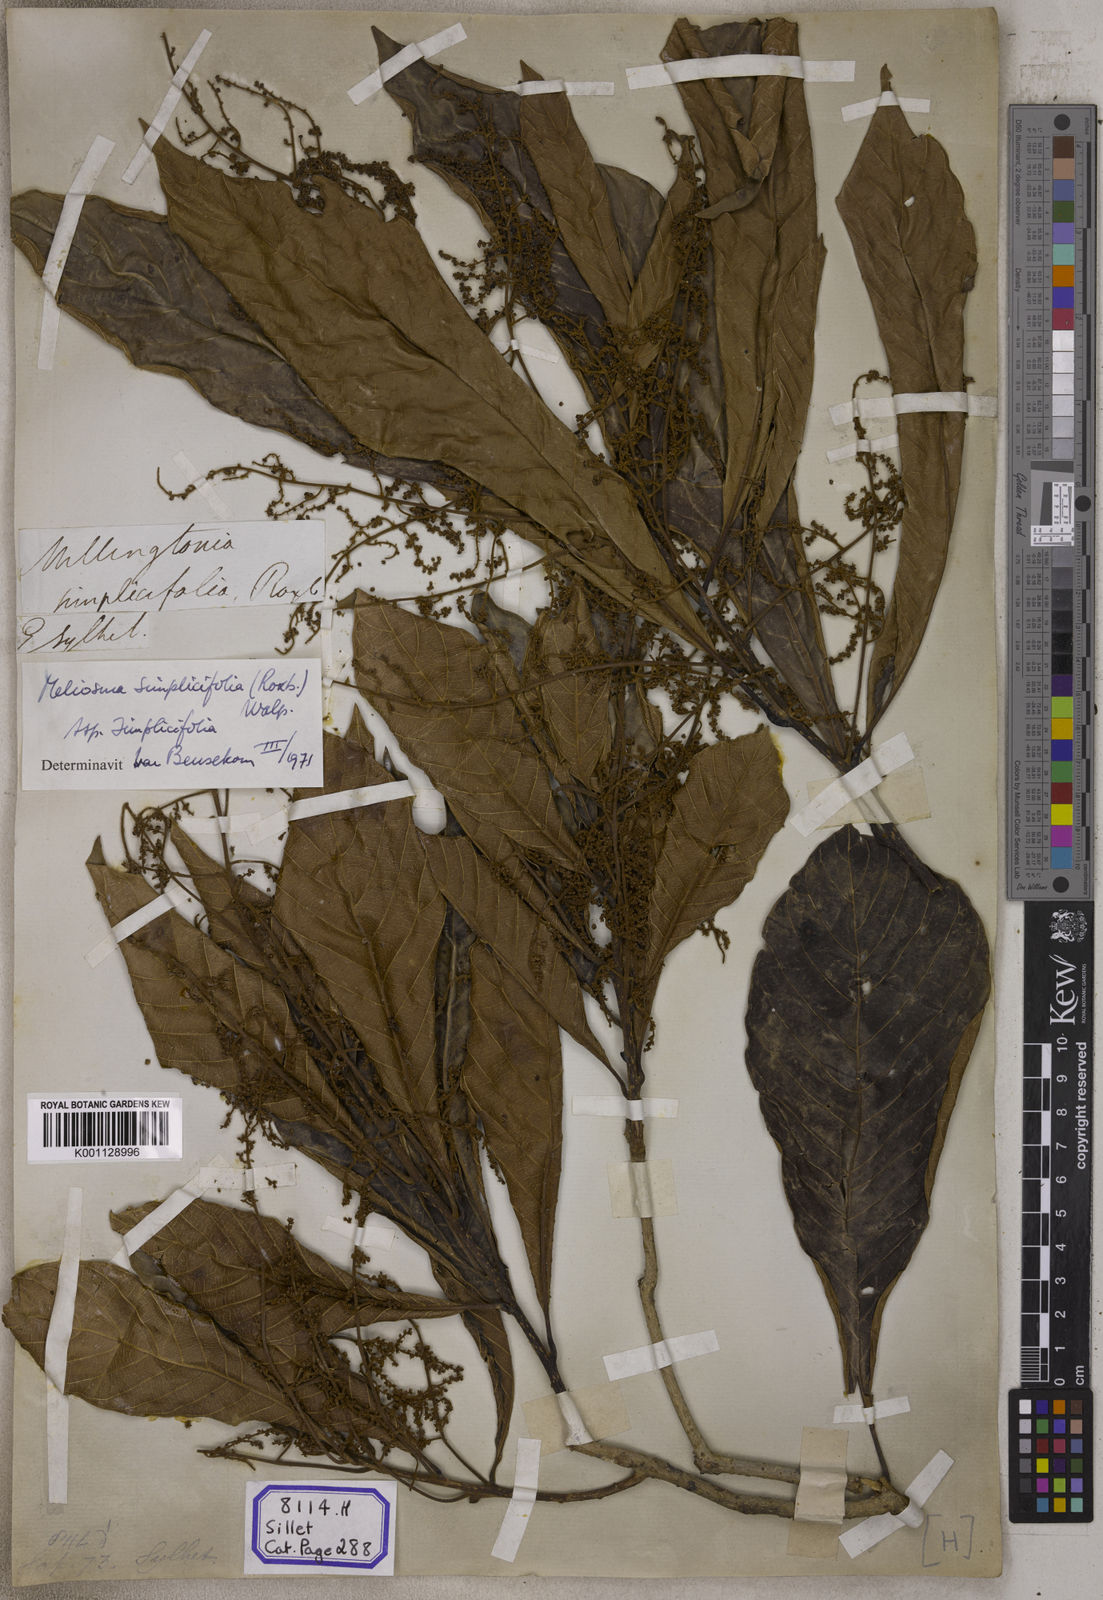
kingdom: Plantae
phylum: Tracheophyta
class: Magnoliopsida
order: Proteales
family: Sabiaceae
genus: Meliosma
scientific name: Meliosma simplicifolia
